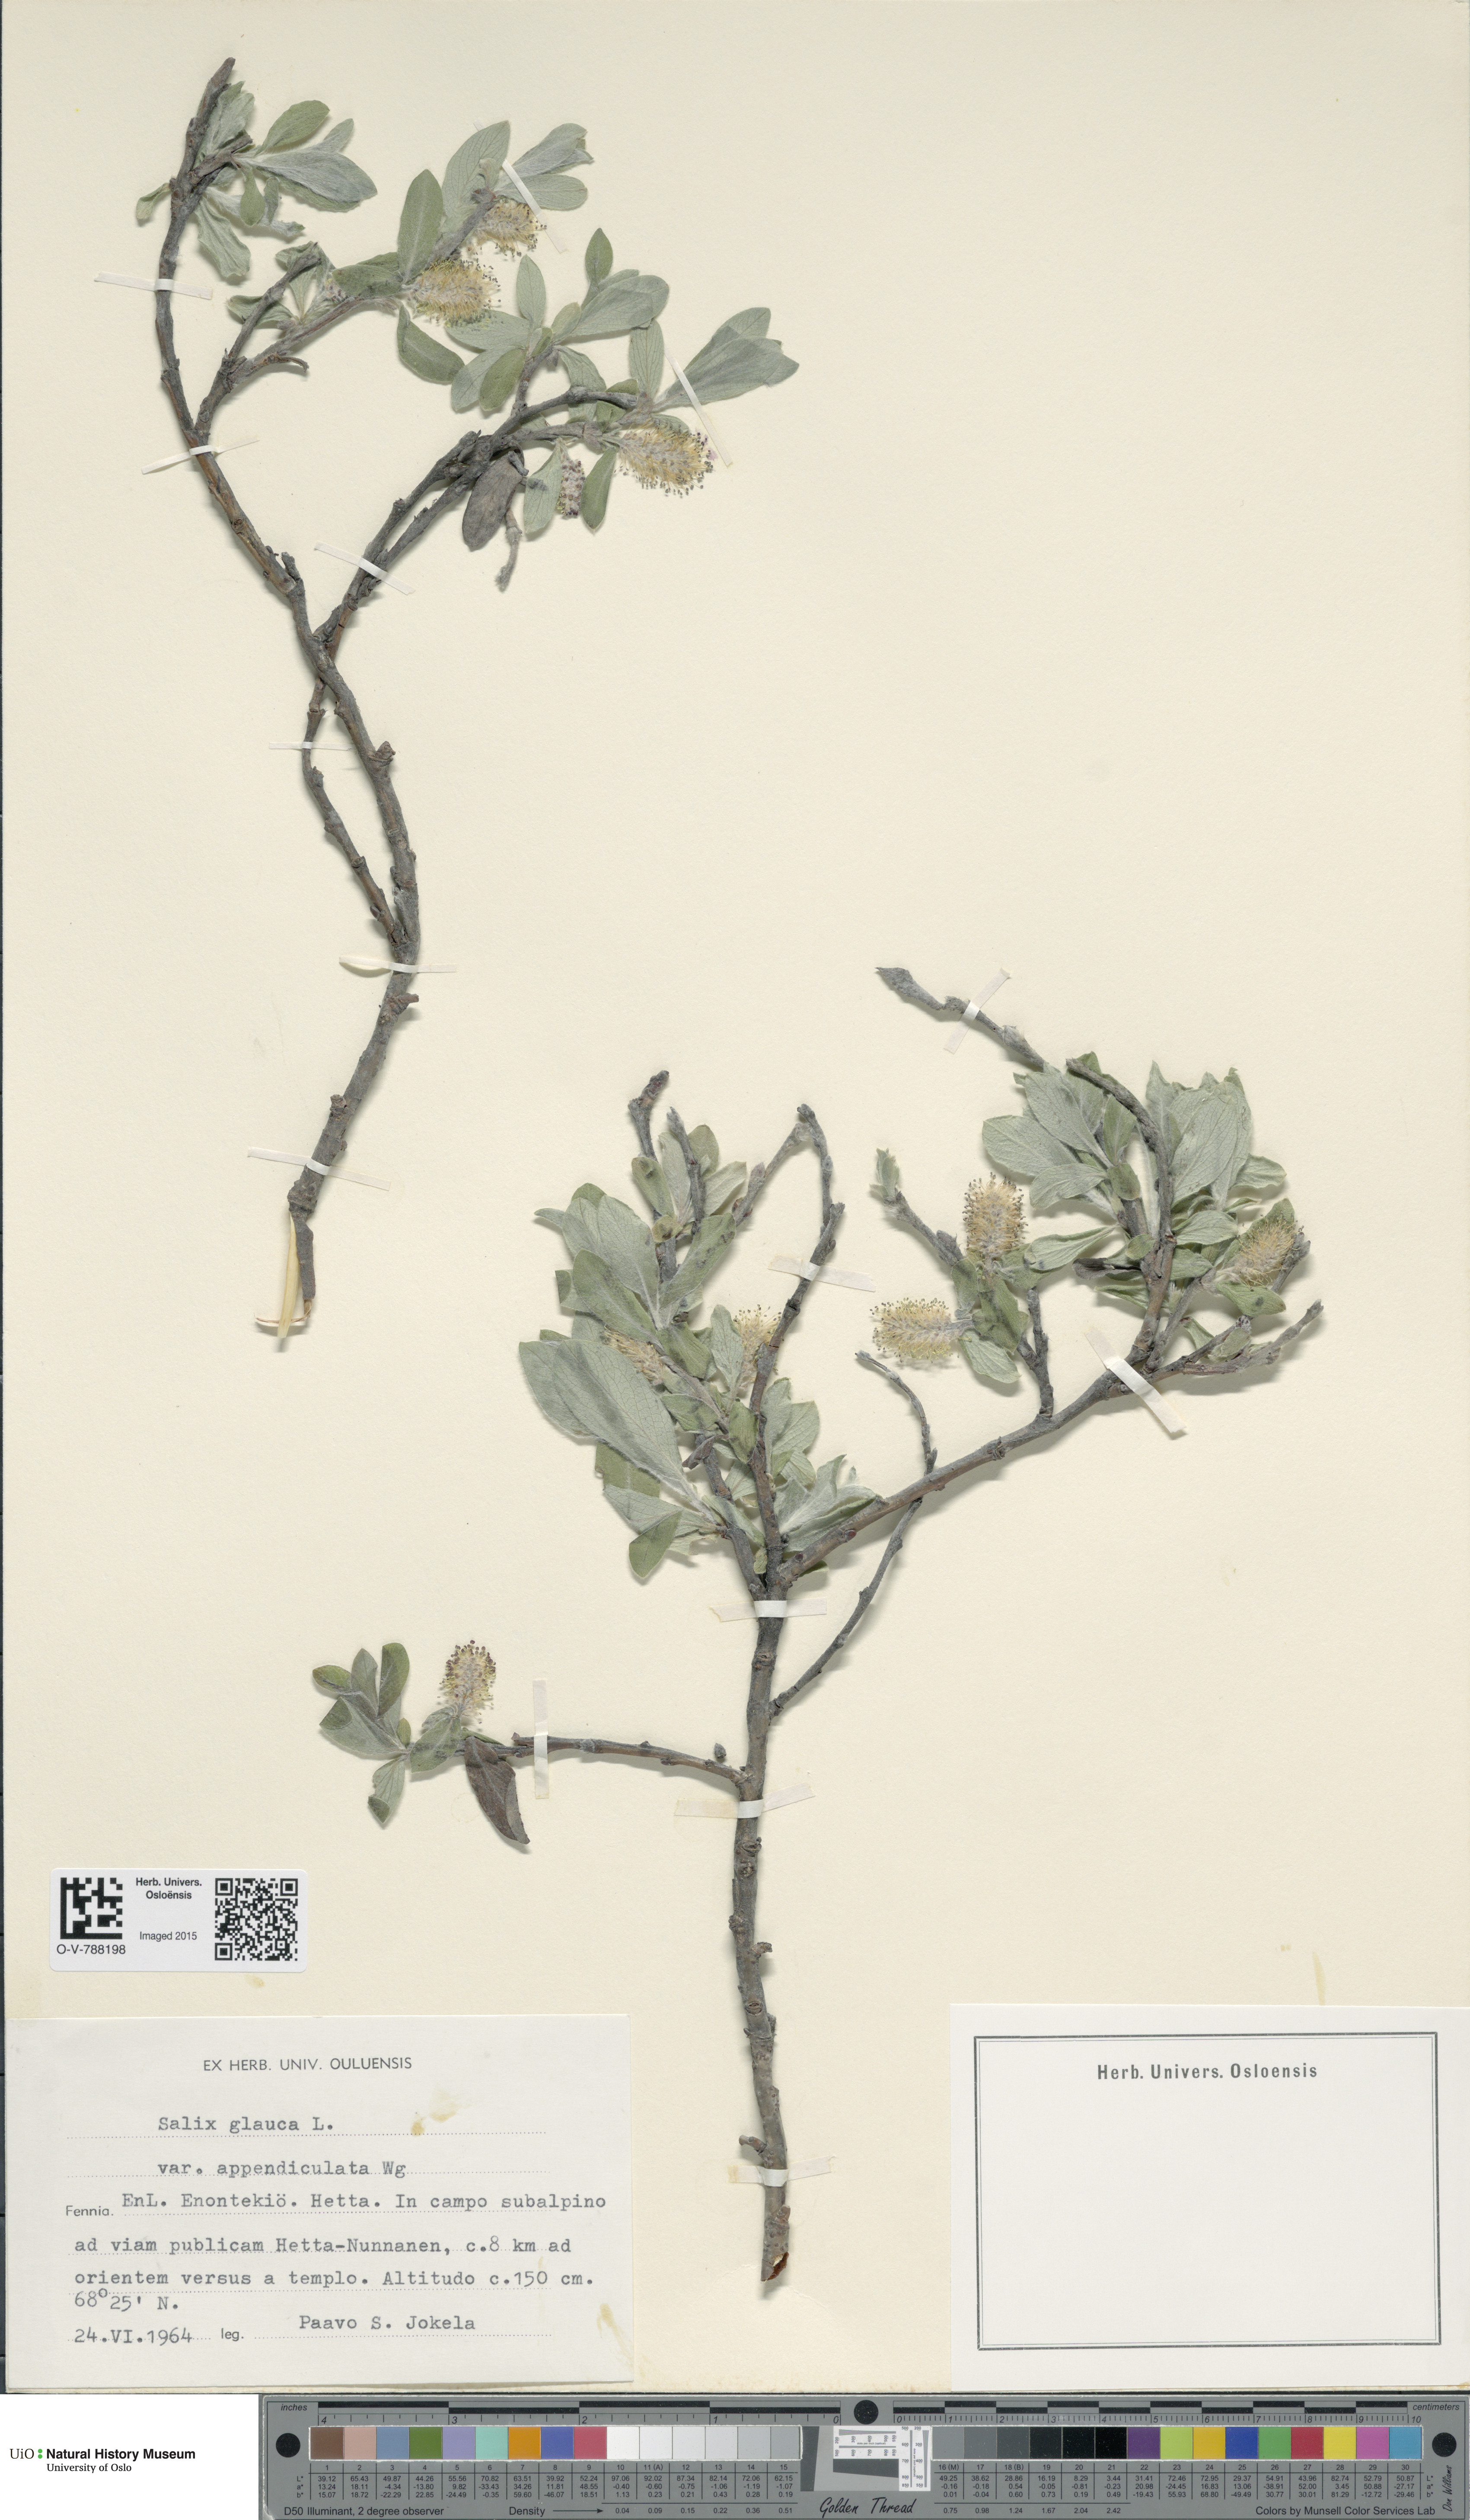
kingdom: Plantae
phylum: Tracheophyta
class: Magnoliopsida
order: Malpighiales
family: Salicaceae
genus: Salix
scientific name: Salix glauca
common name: Glaucous willow
